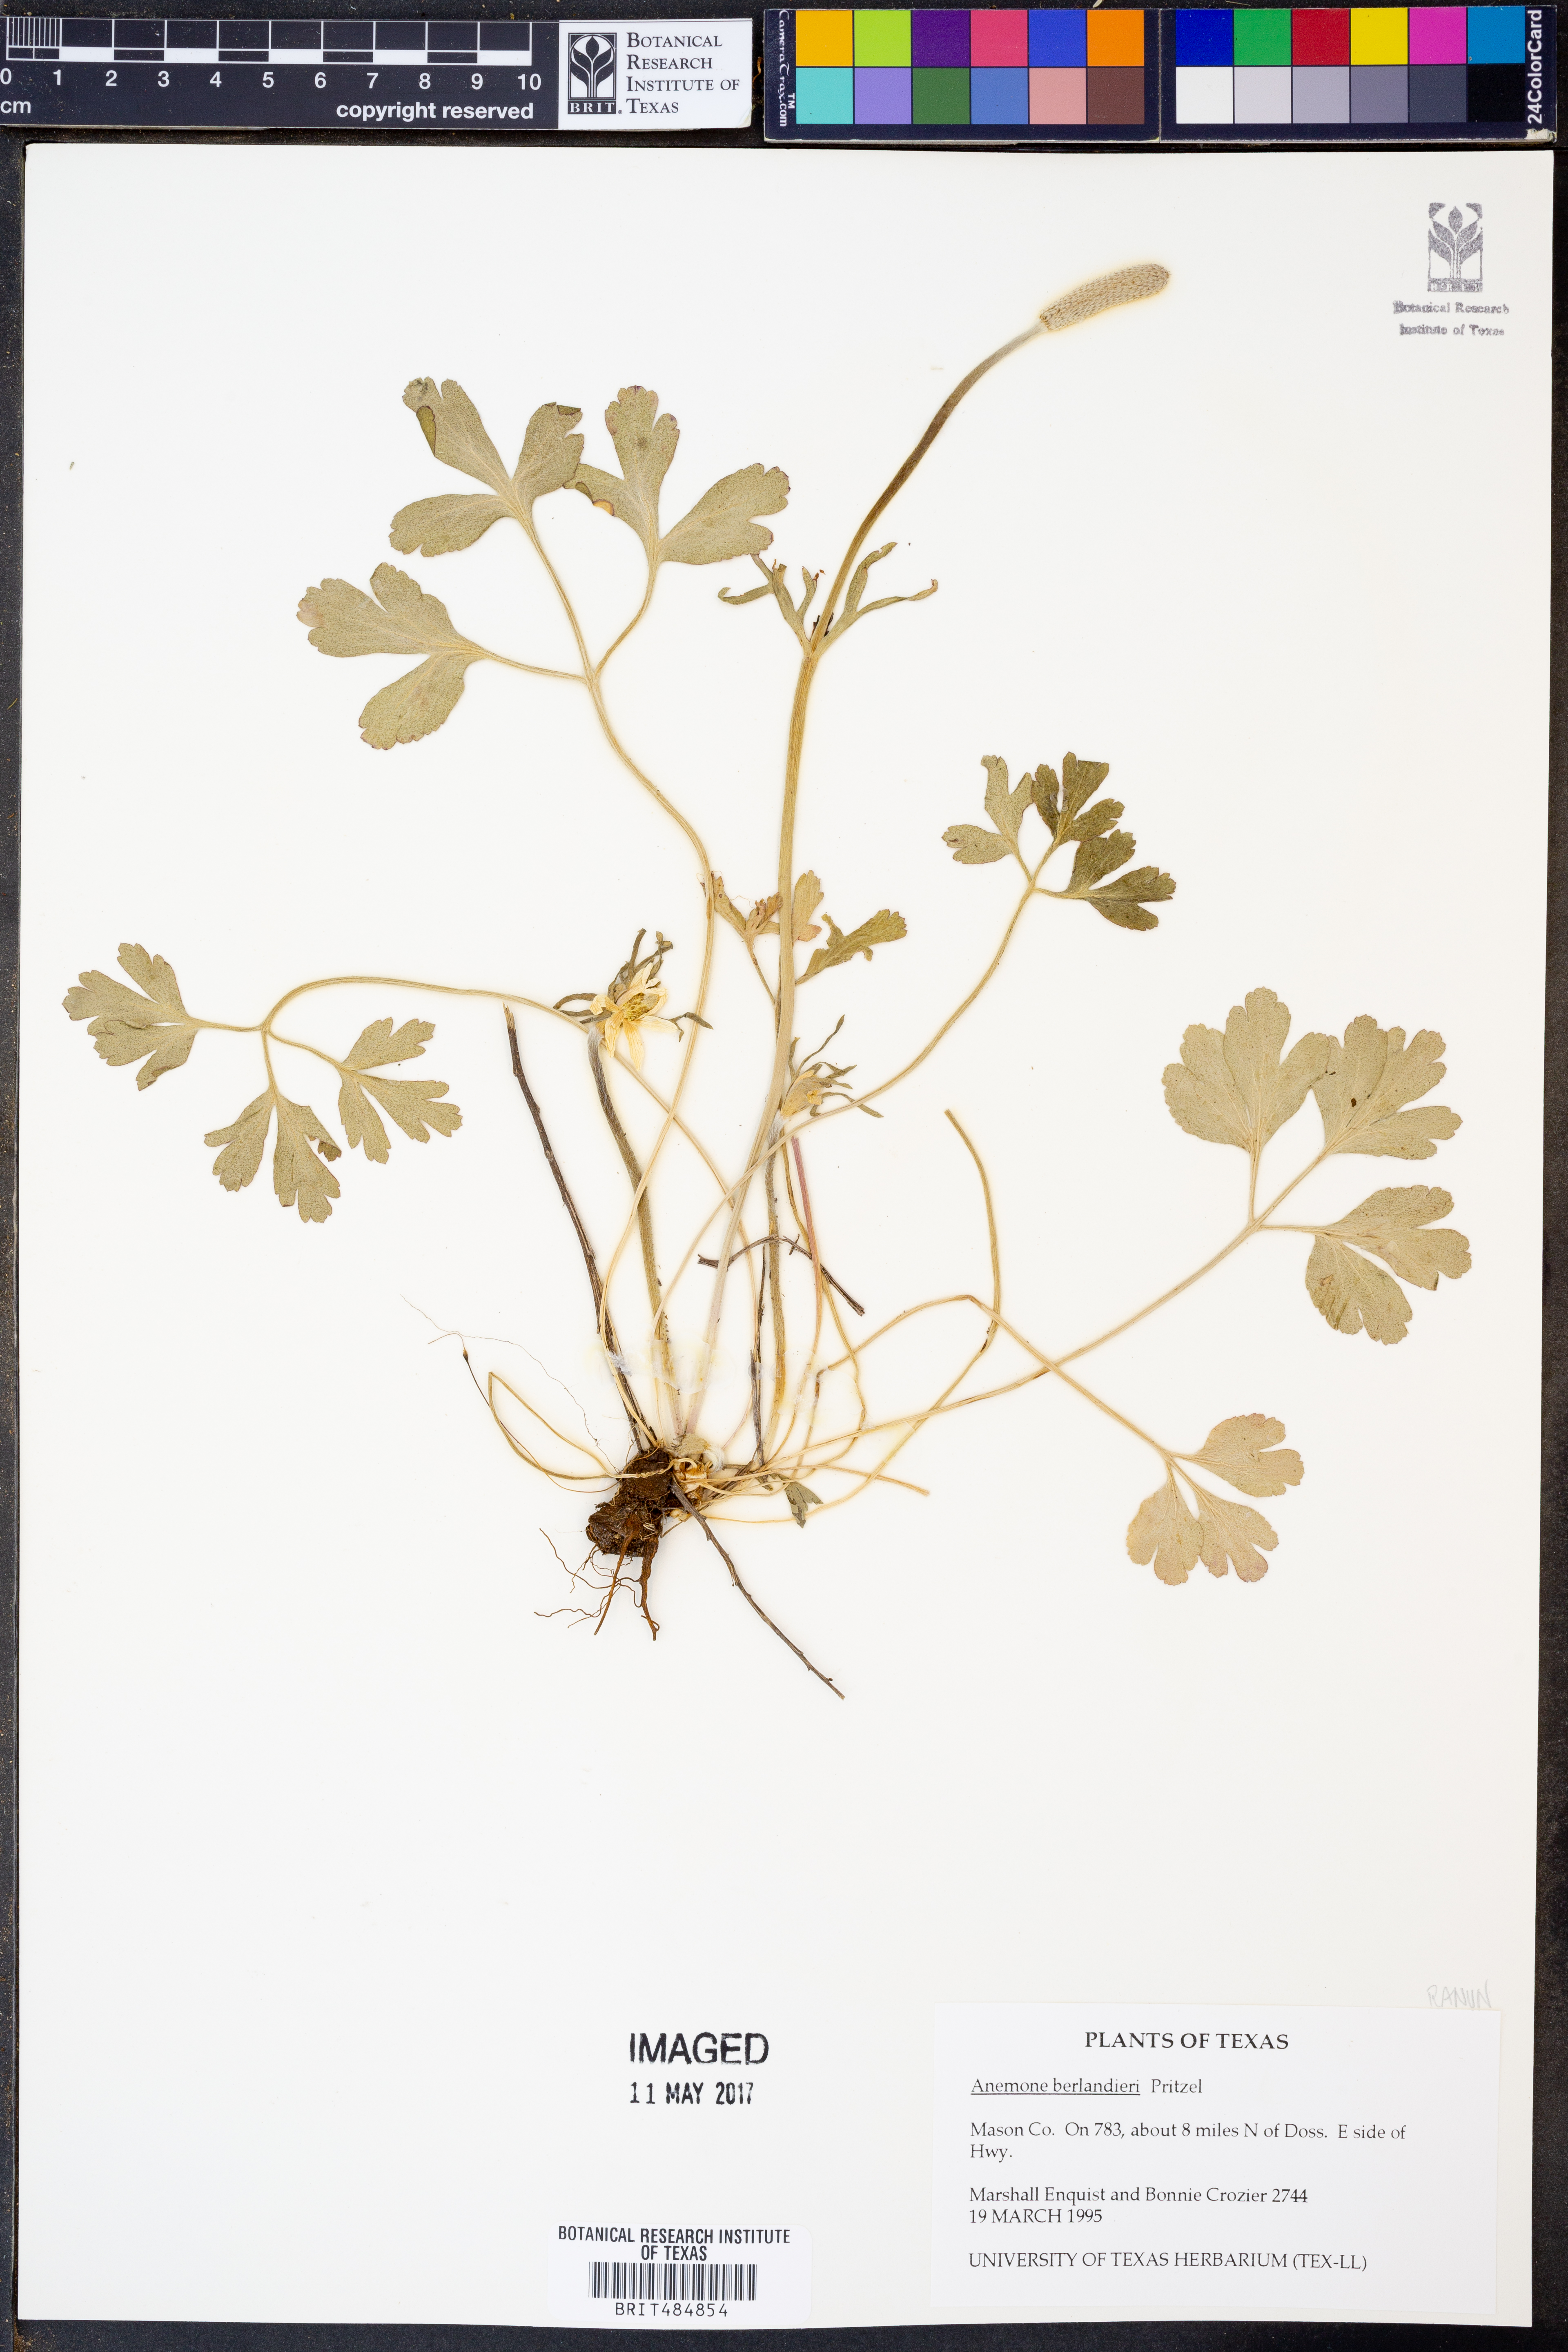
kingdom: Plantae
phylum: Tracheophyta
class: Magnoliopsida
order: Ranunculales
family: Ranunculaceae
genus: Anemone
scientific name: Anemone berlandieri
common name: Ten-petal anemone
